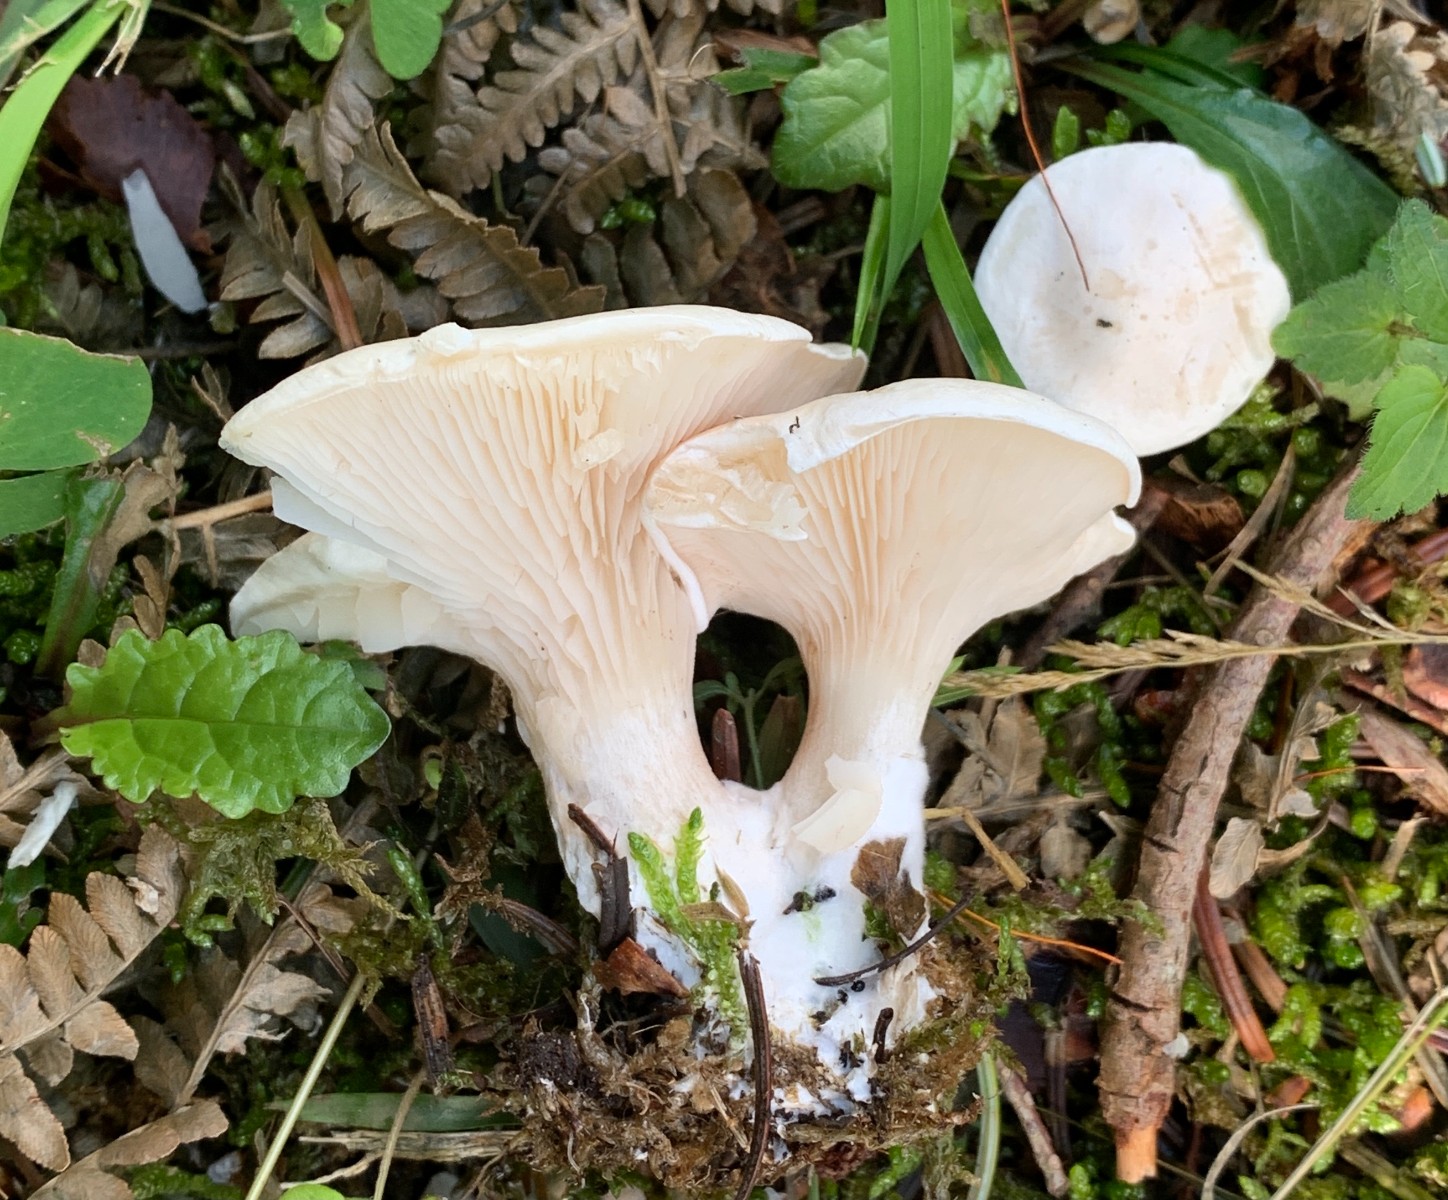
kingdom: Fungi
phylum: Basidiomycota
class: Agaricomycetes
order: Agaricales
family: Entolomataceae
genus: Clitopilus
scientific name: Clitopilus prunulus
